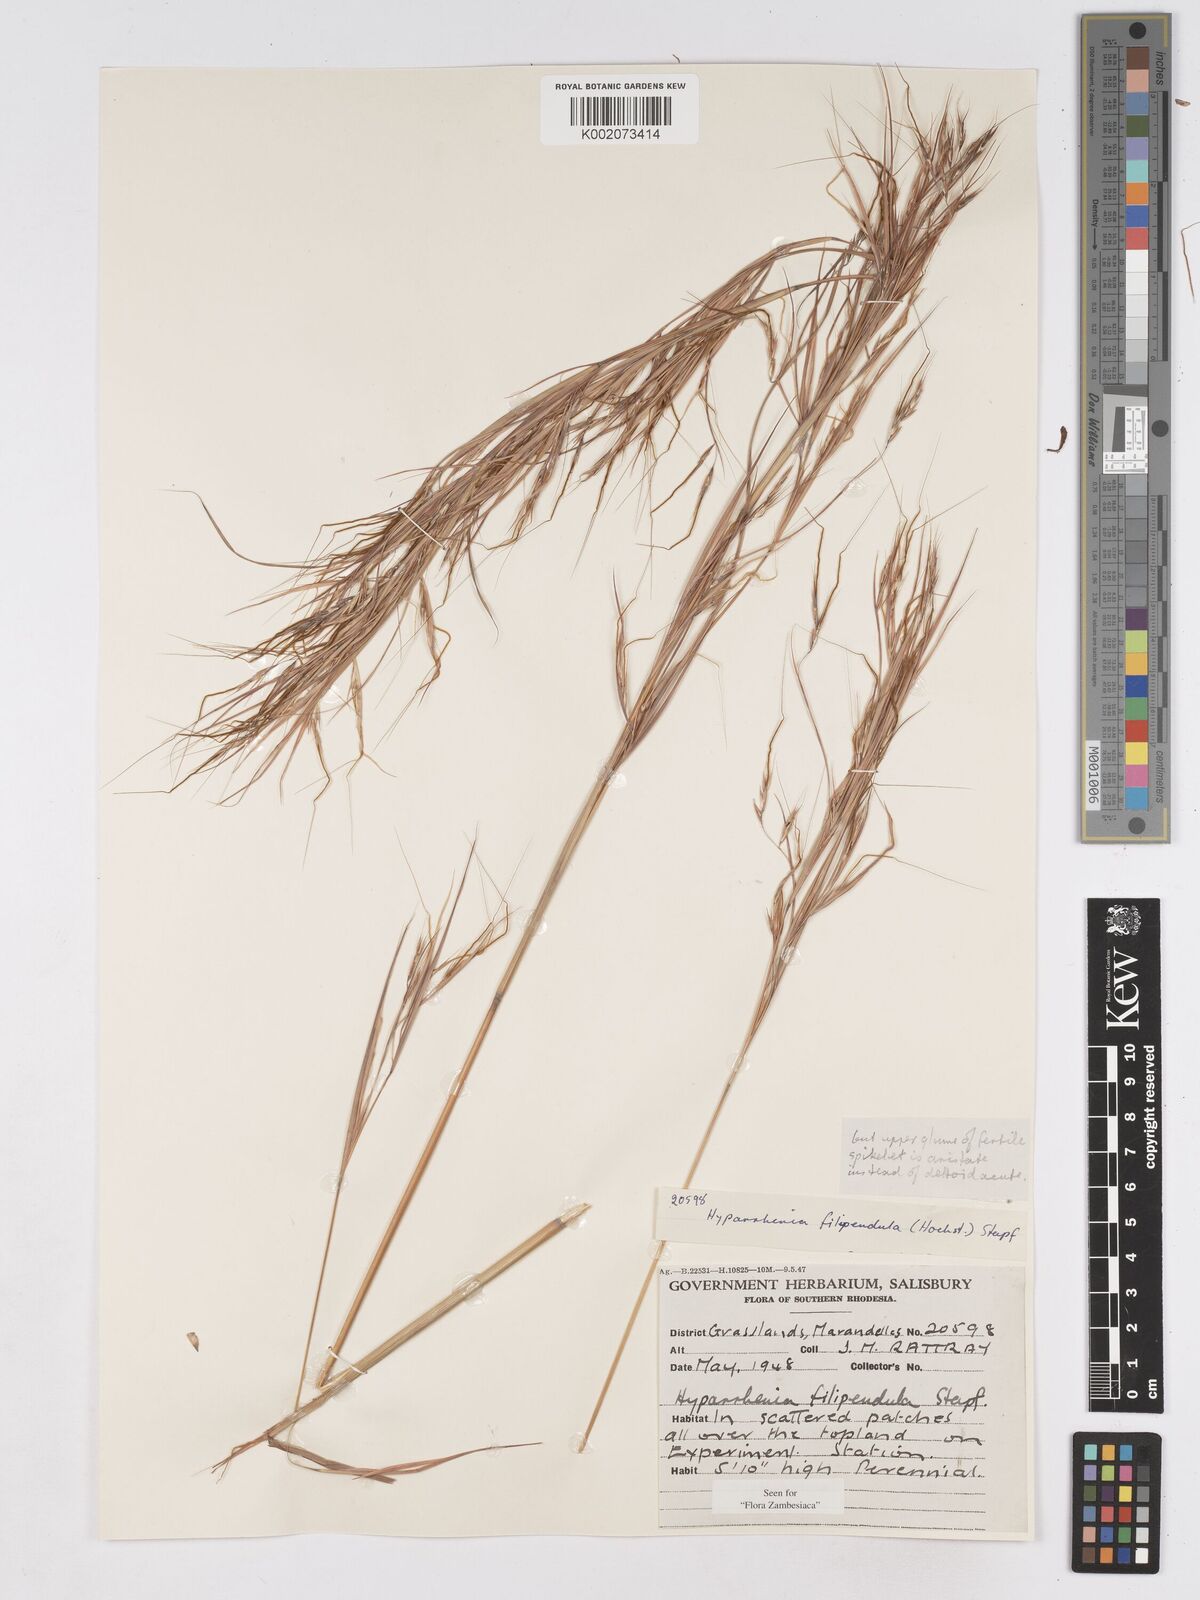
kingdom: Plantae
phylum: Tracheophyta
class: Liliopsida
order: Poales
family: Poaceae
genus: Hyparrhenia
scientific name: Hyparrhenia filipendula
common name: Tambookie grass
